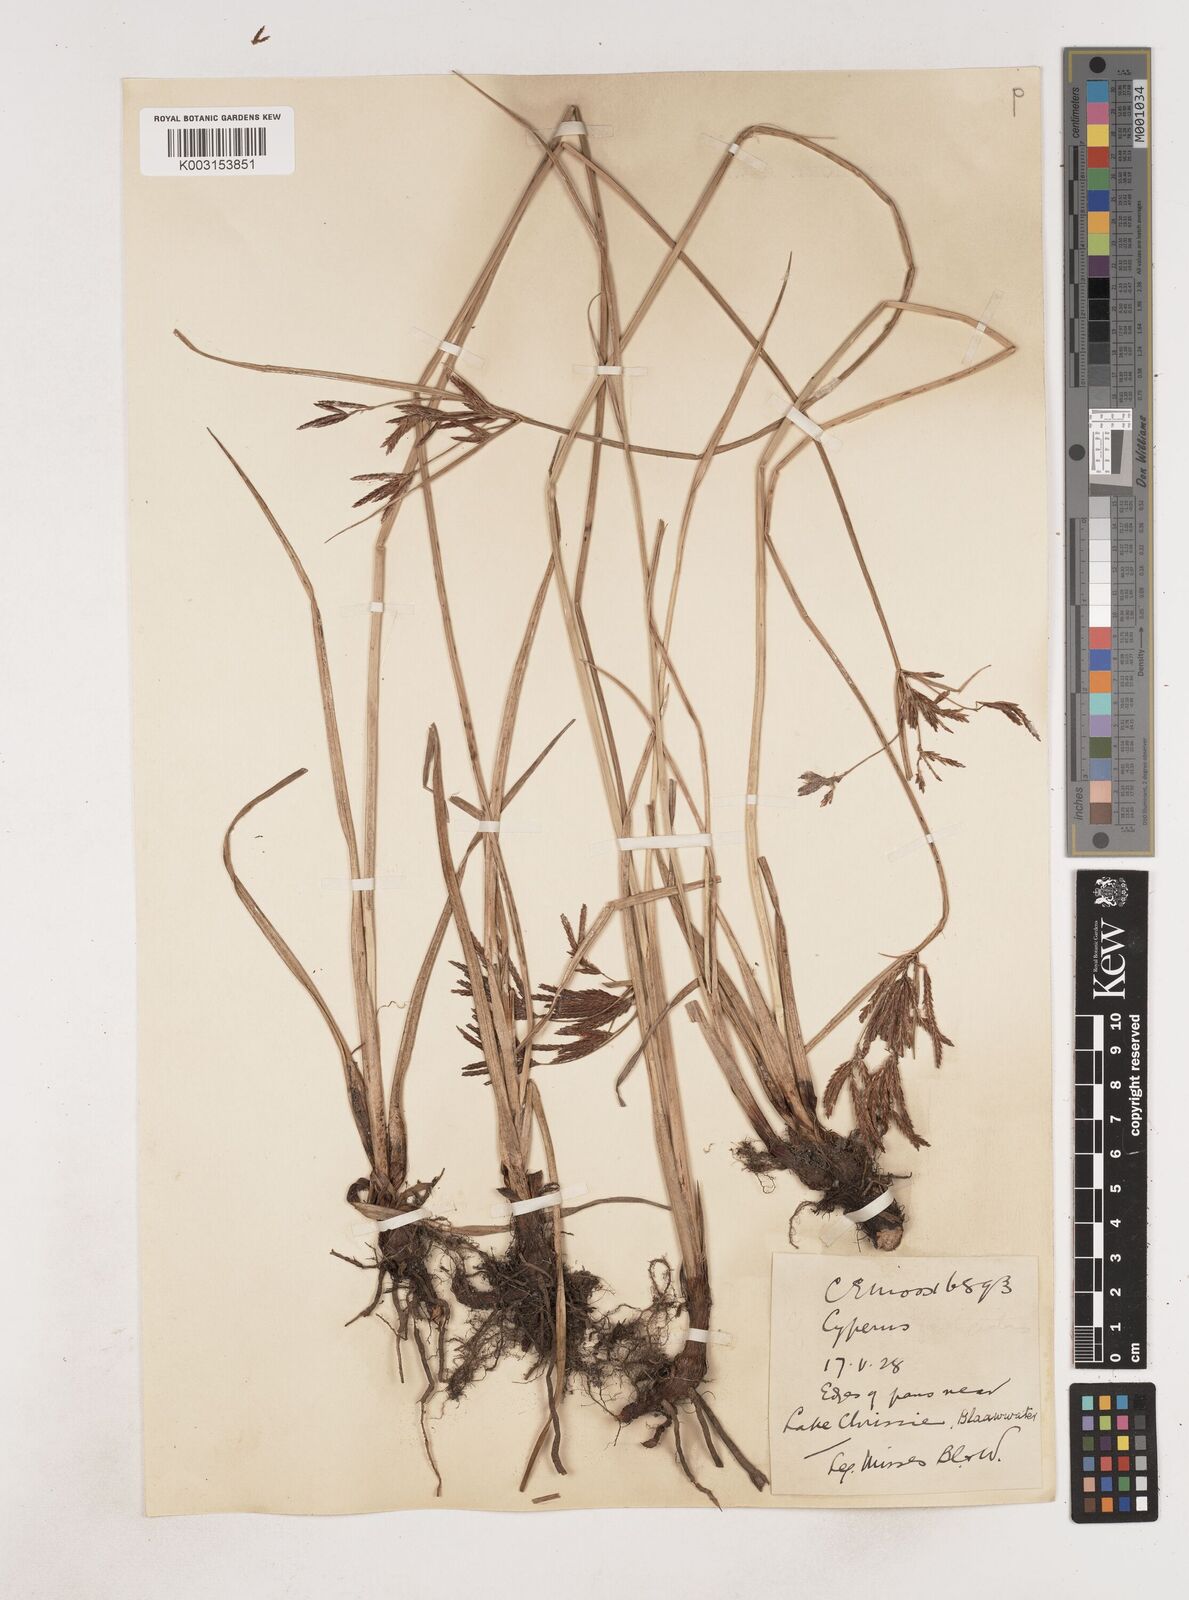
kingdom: Plantae
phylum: Tracheophyta
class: Liliopsida
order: Poales
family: Cyperaceae
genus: Cyperus
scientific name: Cyperus
